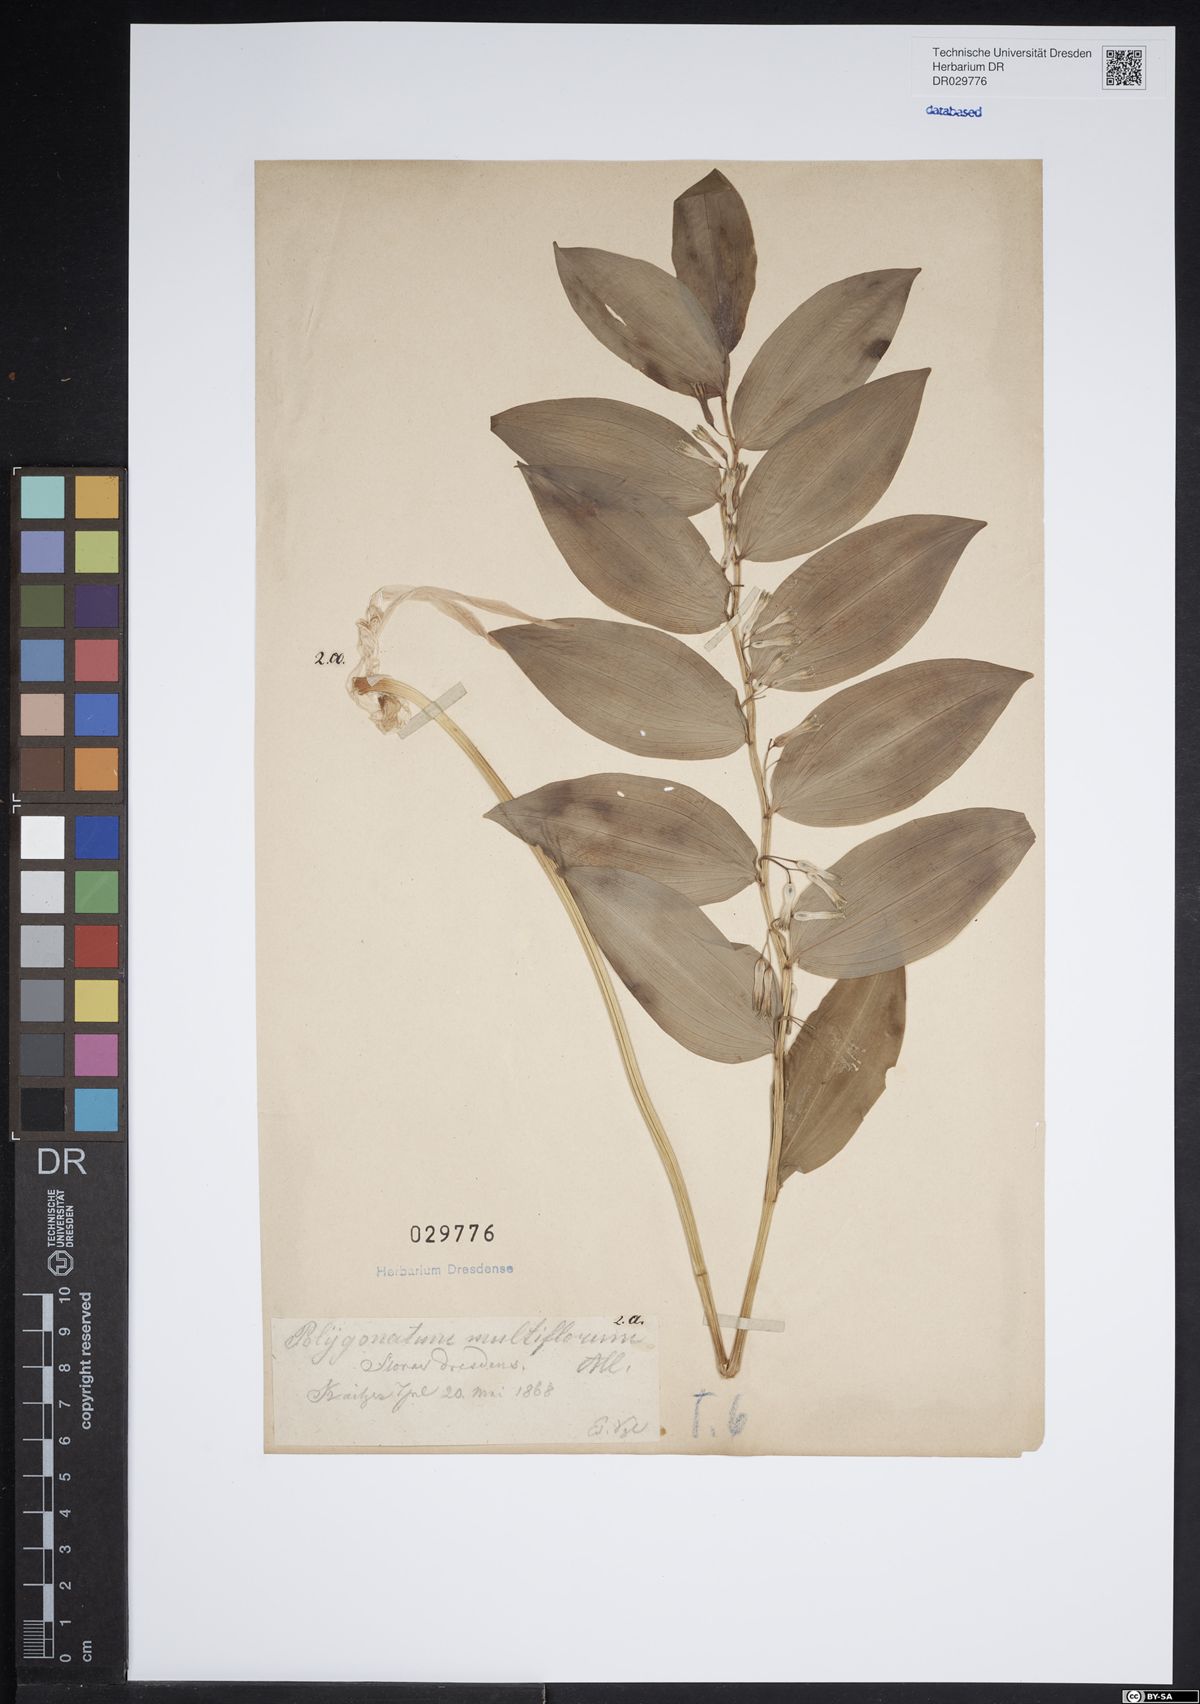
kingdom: Plantae
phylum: Tracheophyta
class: Liliopsida
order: Asparagales
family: Asparagaceae
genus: Polygonatum
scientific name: Polygonatum multiflorum
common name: Solomon's-seal
